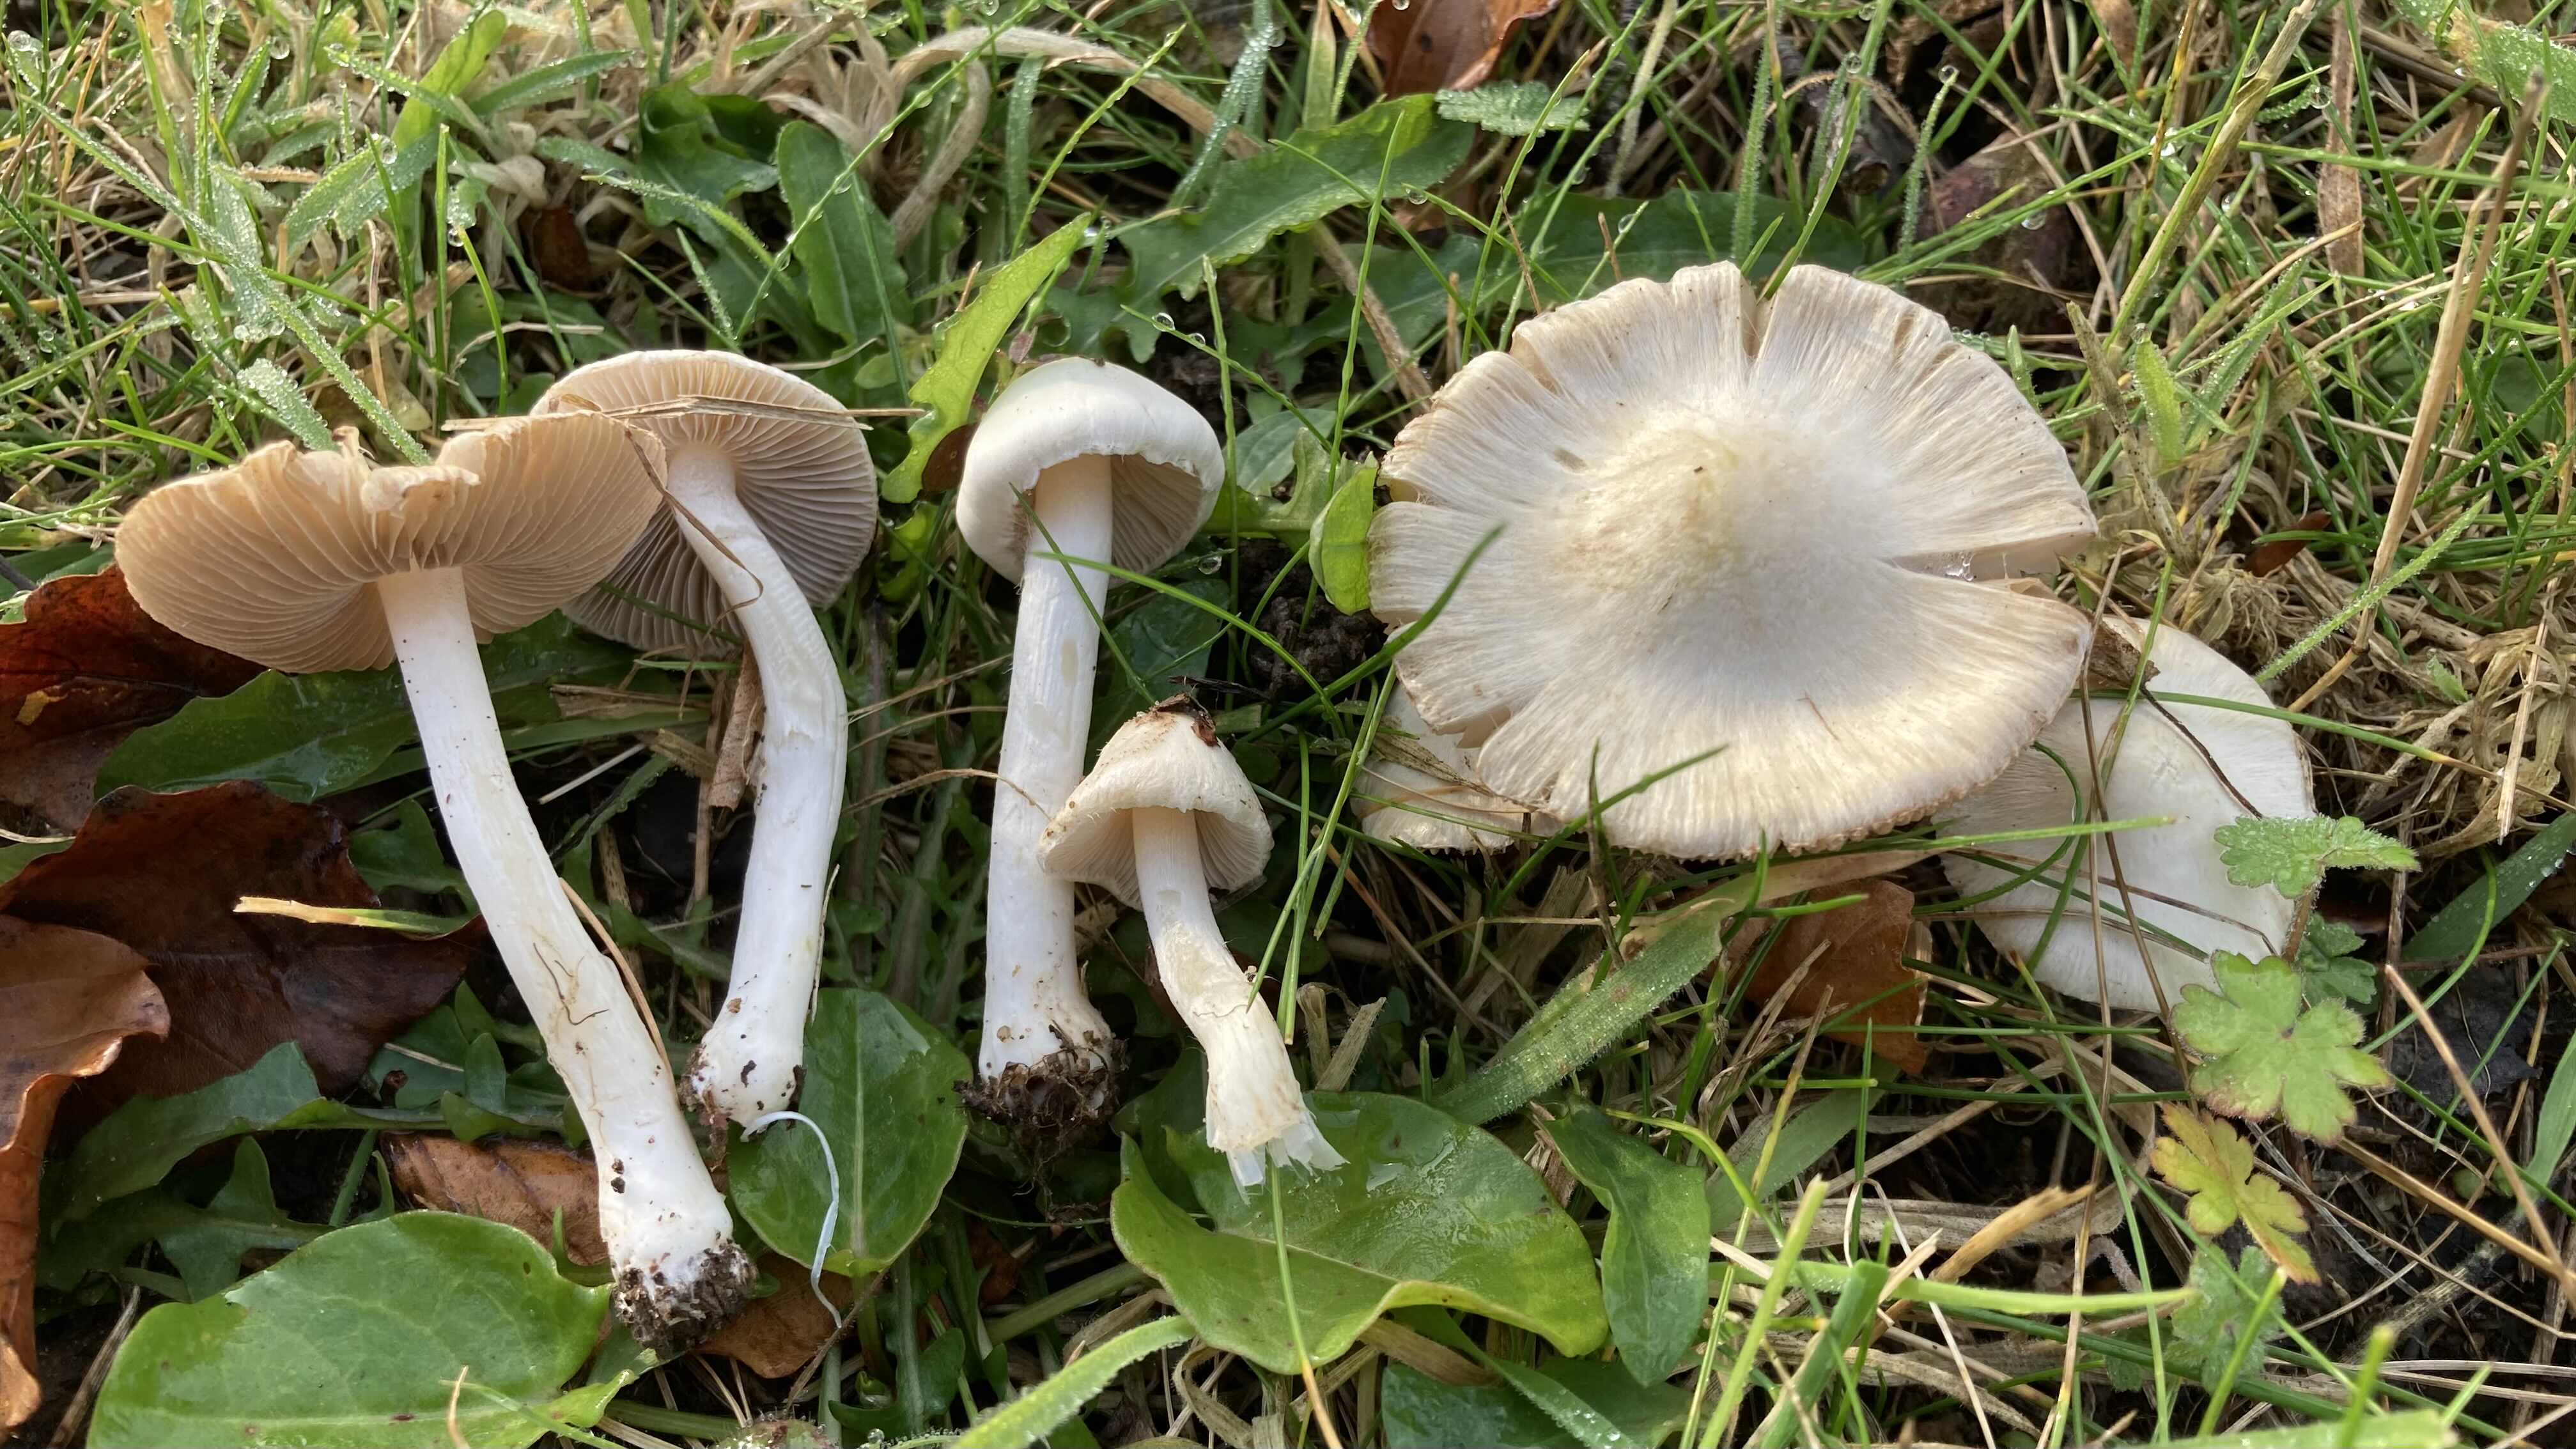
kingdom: Fungi
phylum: Basidiomycota
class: Agaricomycetes
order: Agaricales
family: Inocybaceae
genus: Inocybe
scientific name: Inocybe
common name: almindelig trævlhat
